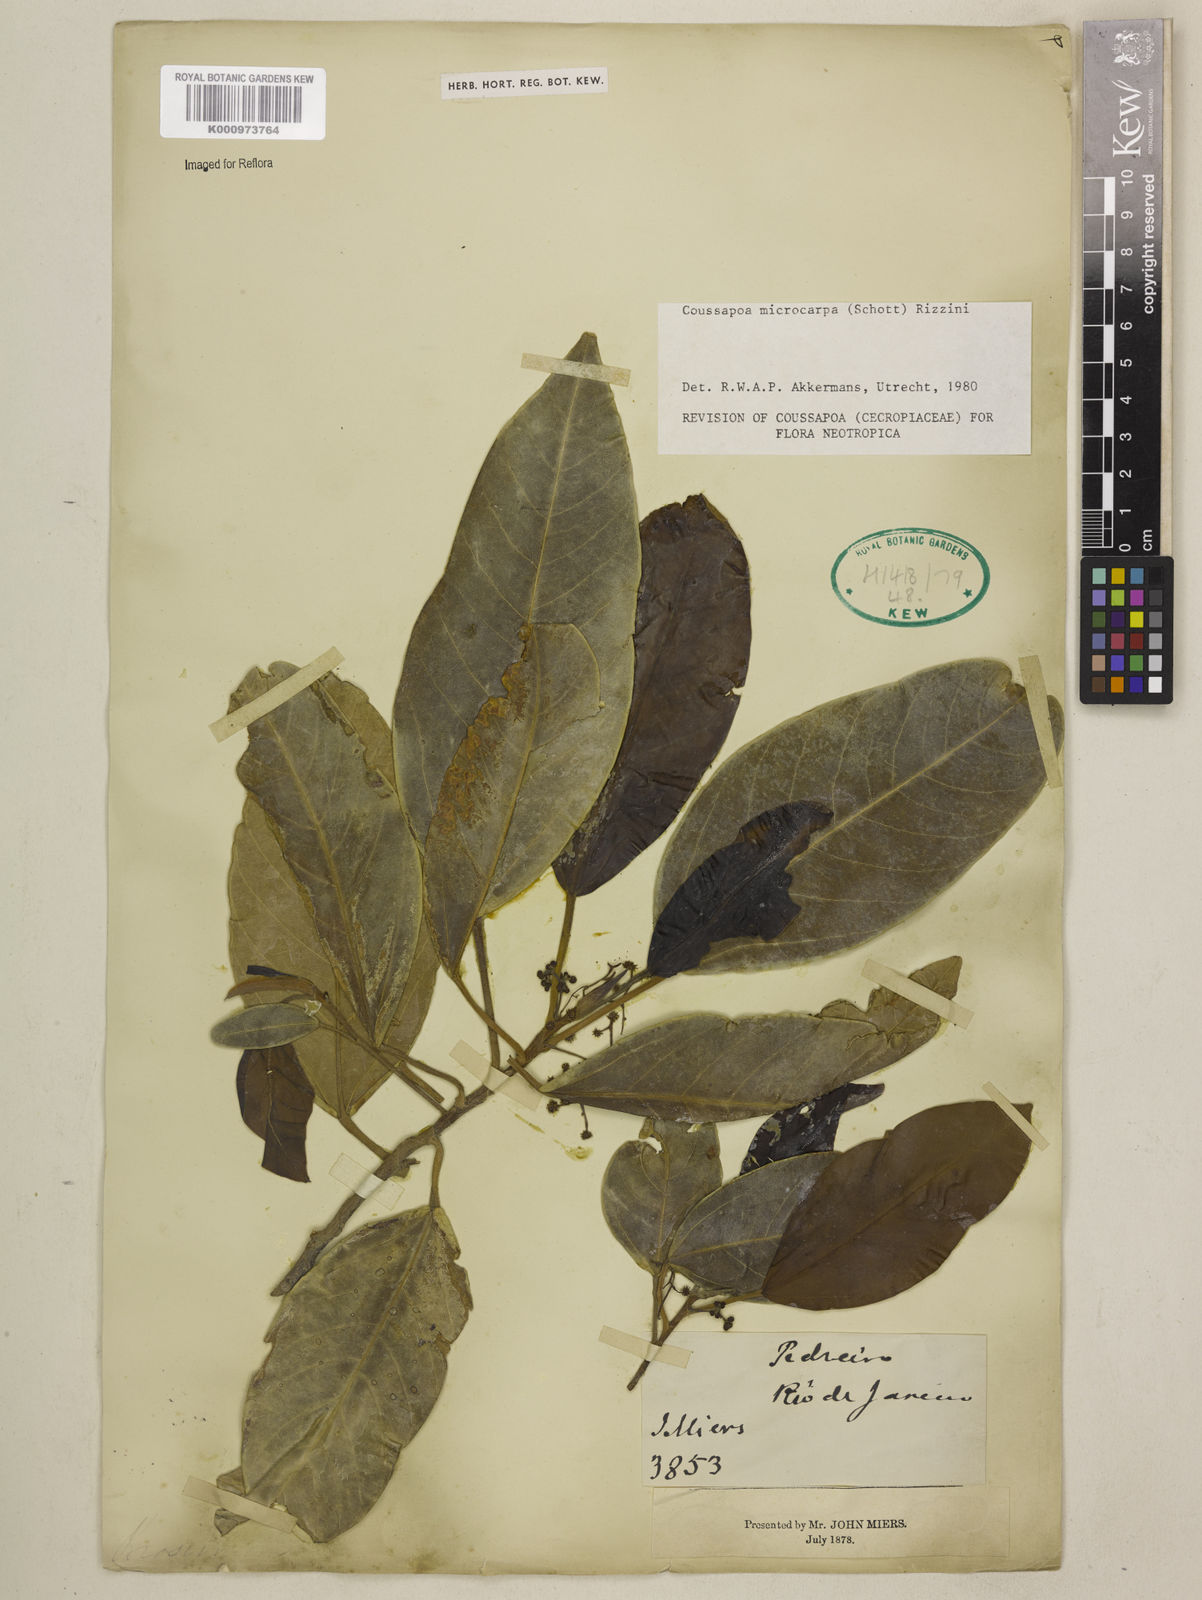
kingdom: Plantae
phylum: Tracheophyta
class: Magnoliopsida
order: Rosales
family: Urticaceae
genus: Coussapoa
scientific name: Coussapoa microcarpa
